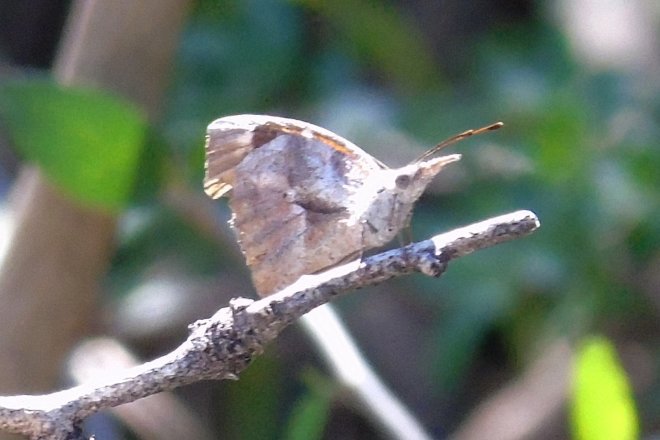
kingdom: Animalia
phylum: Arthropoda
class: Insecta
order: Lepidoptera
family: Nymphalidae
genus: Libytheana
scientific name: Libytheana carinenta
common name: American Snout
